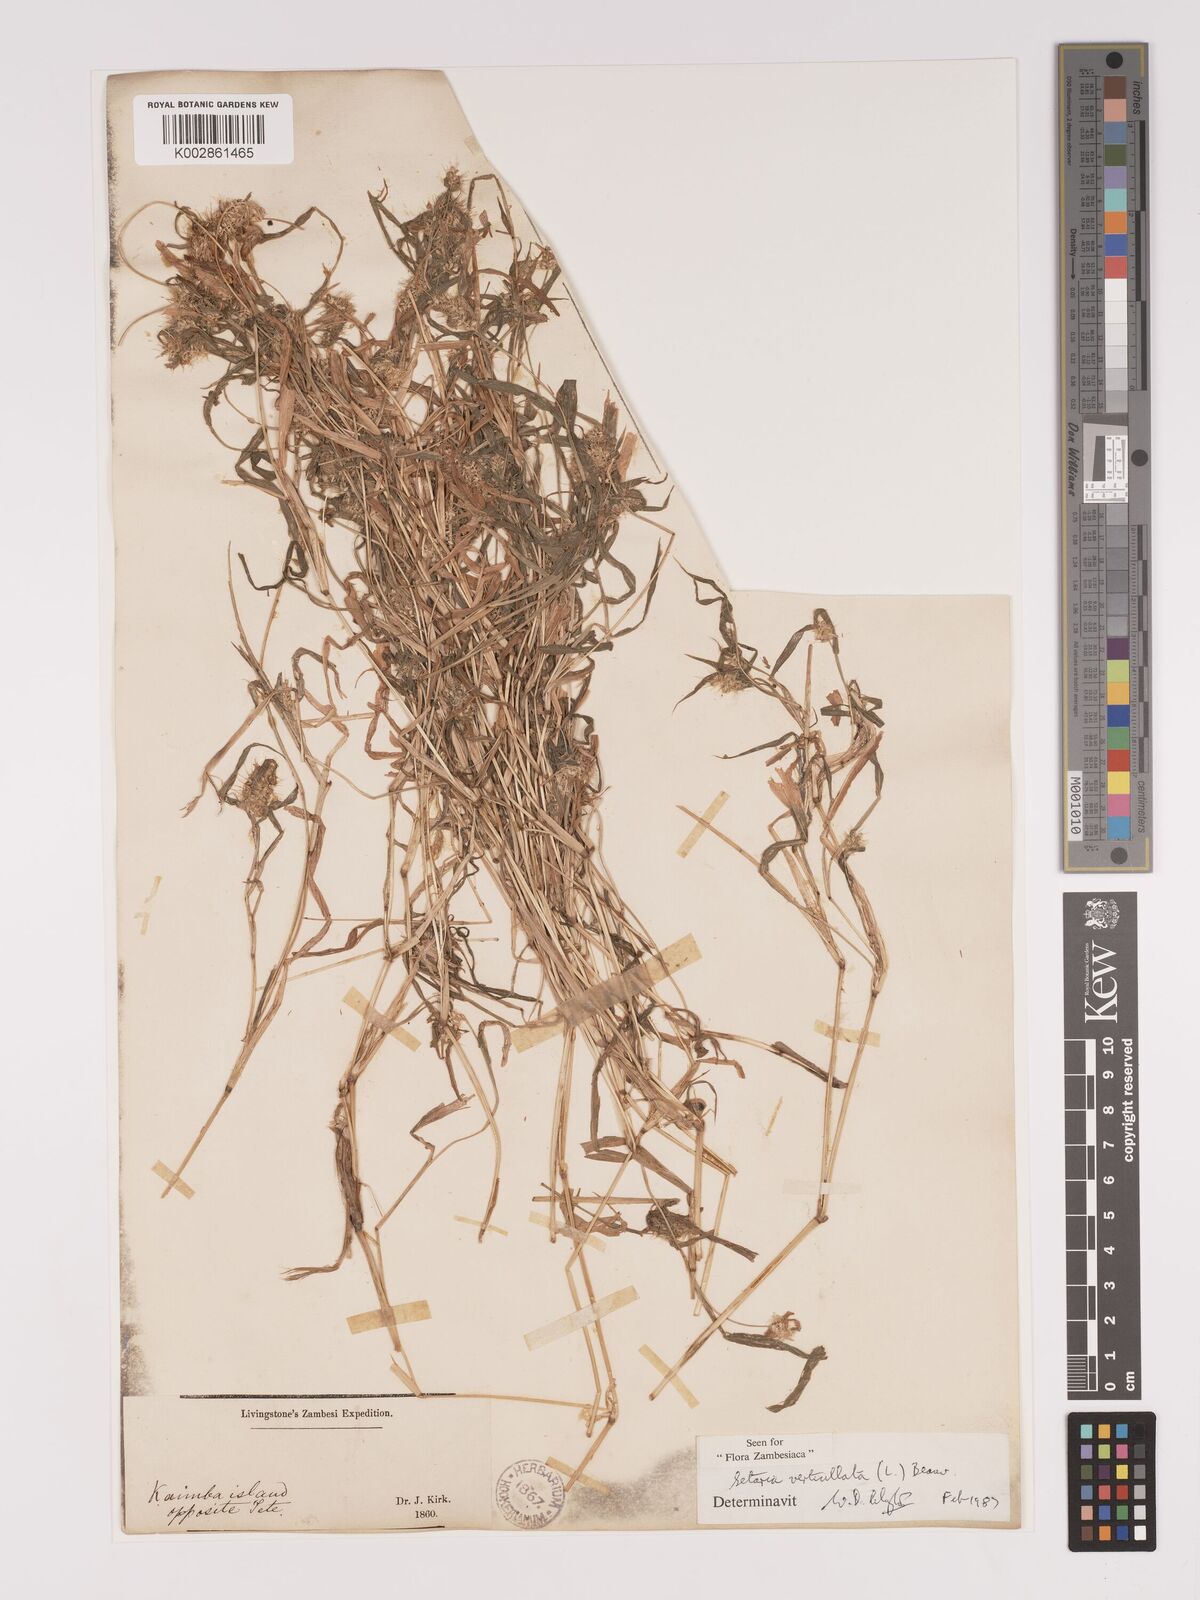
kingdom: Plantae
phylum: Tracheophyta
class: Liliopsida
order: Poales
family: Poaceae
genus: Setaria
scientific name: Setaria verticillata
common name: Hooked bristlegrass
